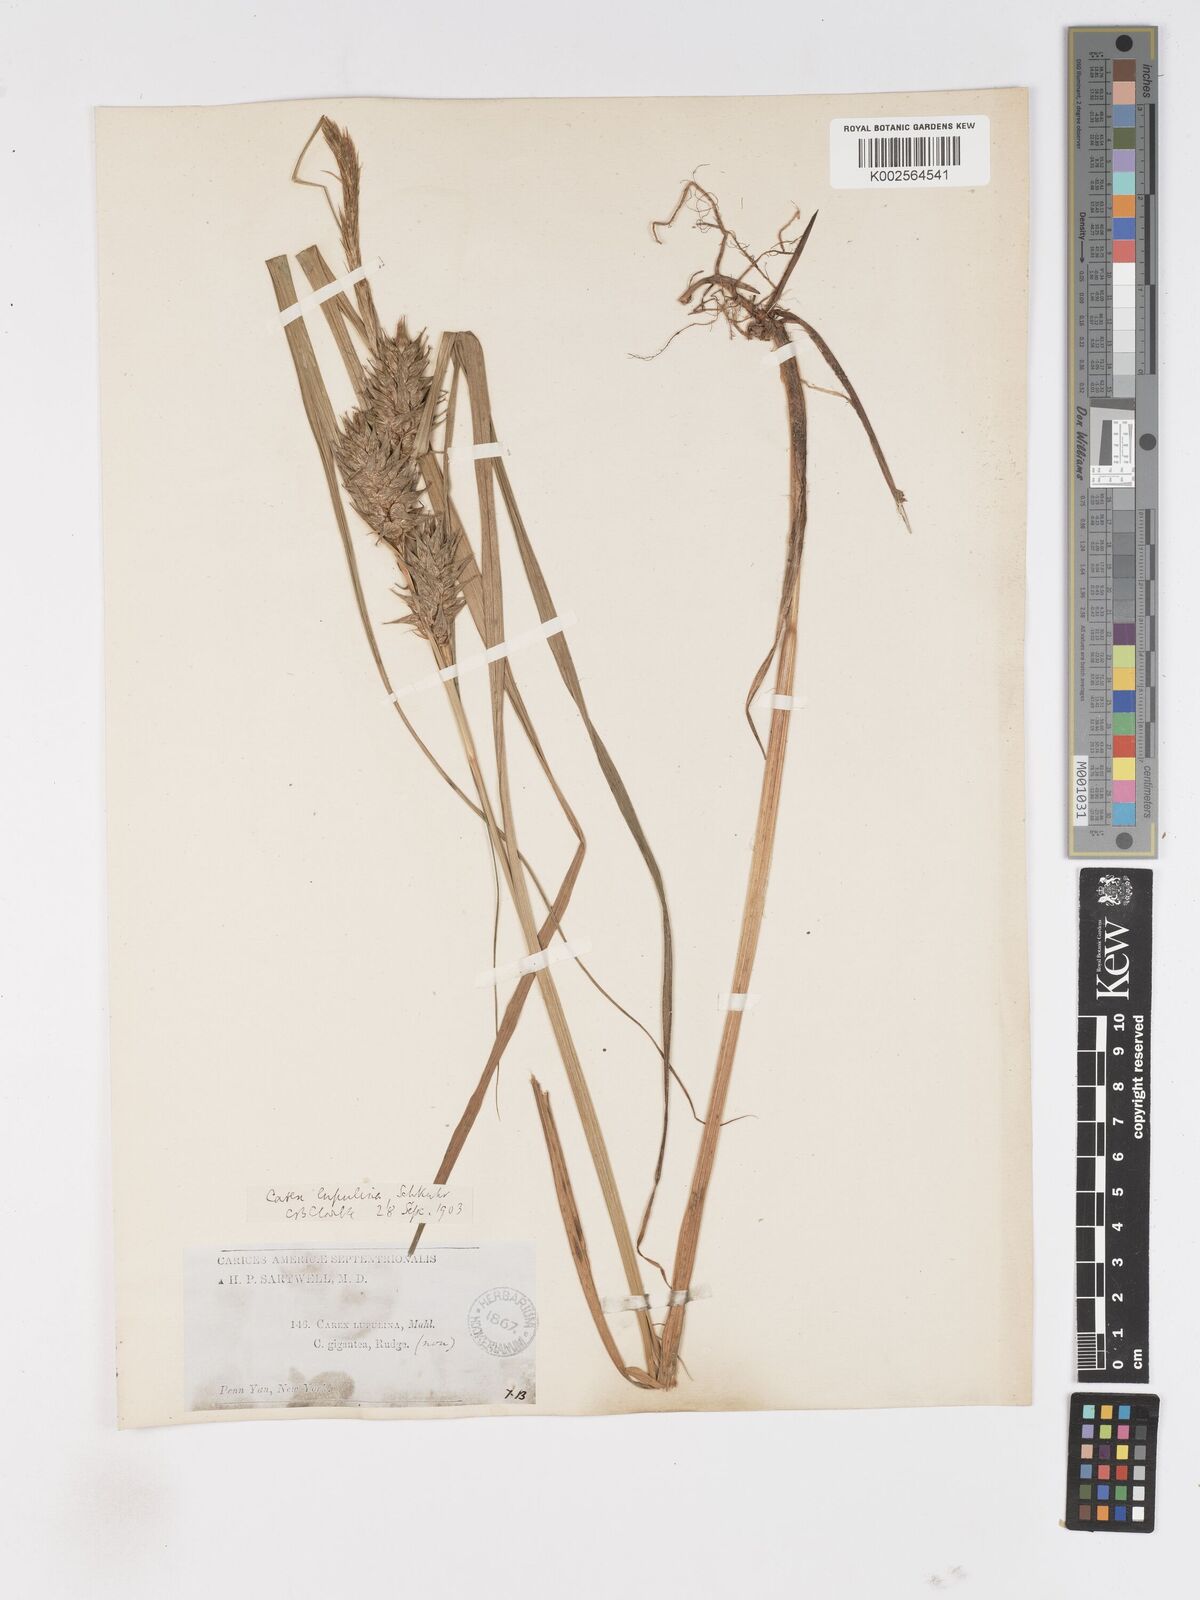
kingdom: Plantae
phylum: Tracheophyta
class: Liliopsida
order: Poales
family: Cyperaceae
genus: Carex
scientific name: Carex lupulina
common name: Hop sedge
